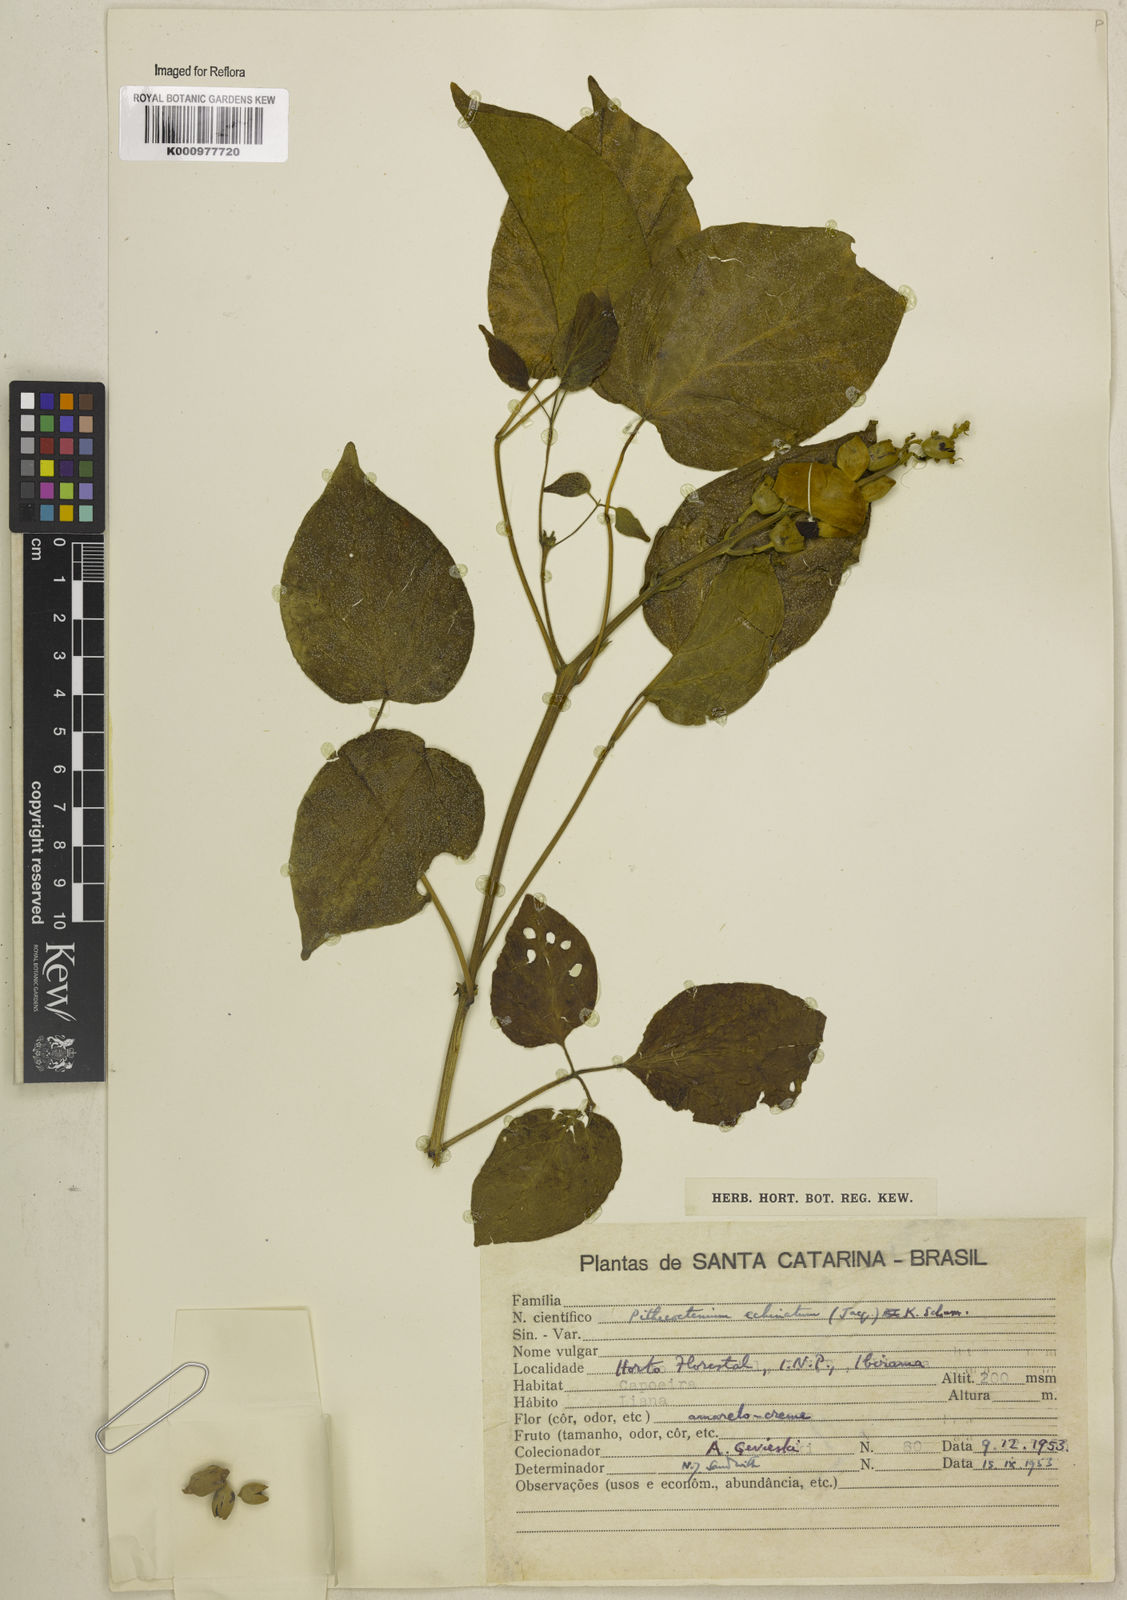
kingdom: Plantae
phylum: Tracheophyta
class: Magnoliopsida
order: Lamiales
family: Bignoniaceae
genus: Amphilophium
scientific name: Amphilophium crucigerum
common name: Monkey comb
